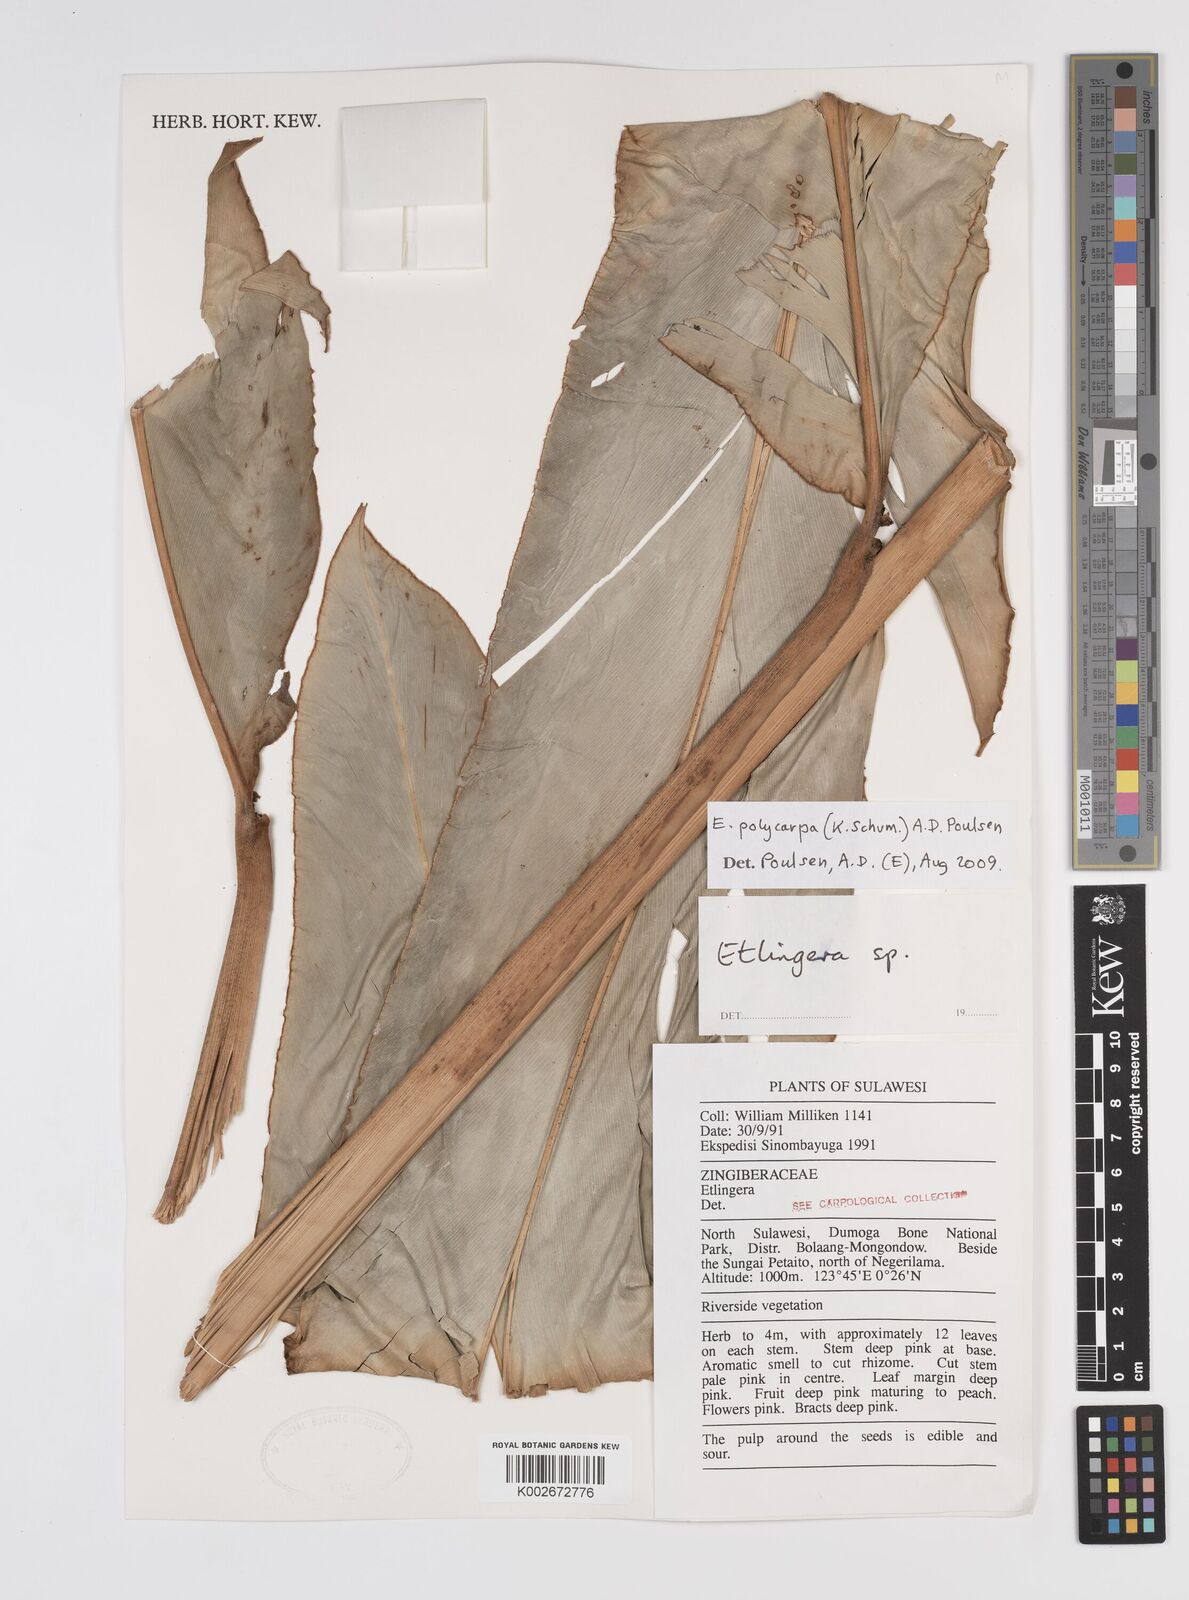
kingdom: Plantae
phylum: Tracheophyta
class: Liliopsida
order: Zingiberales
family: Zingiberaceae
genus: Etlingera
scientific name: Etlingera polycarpa
